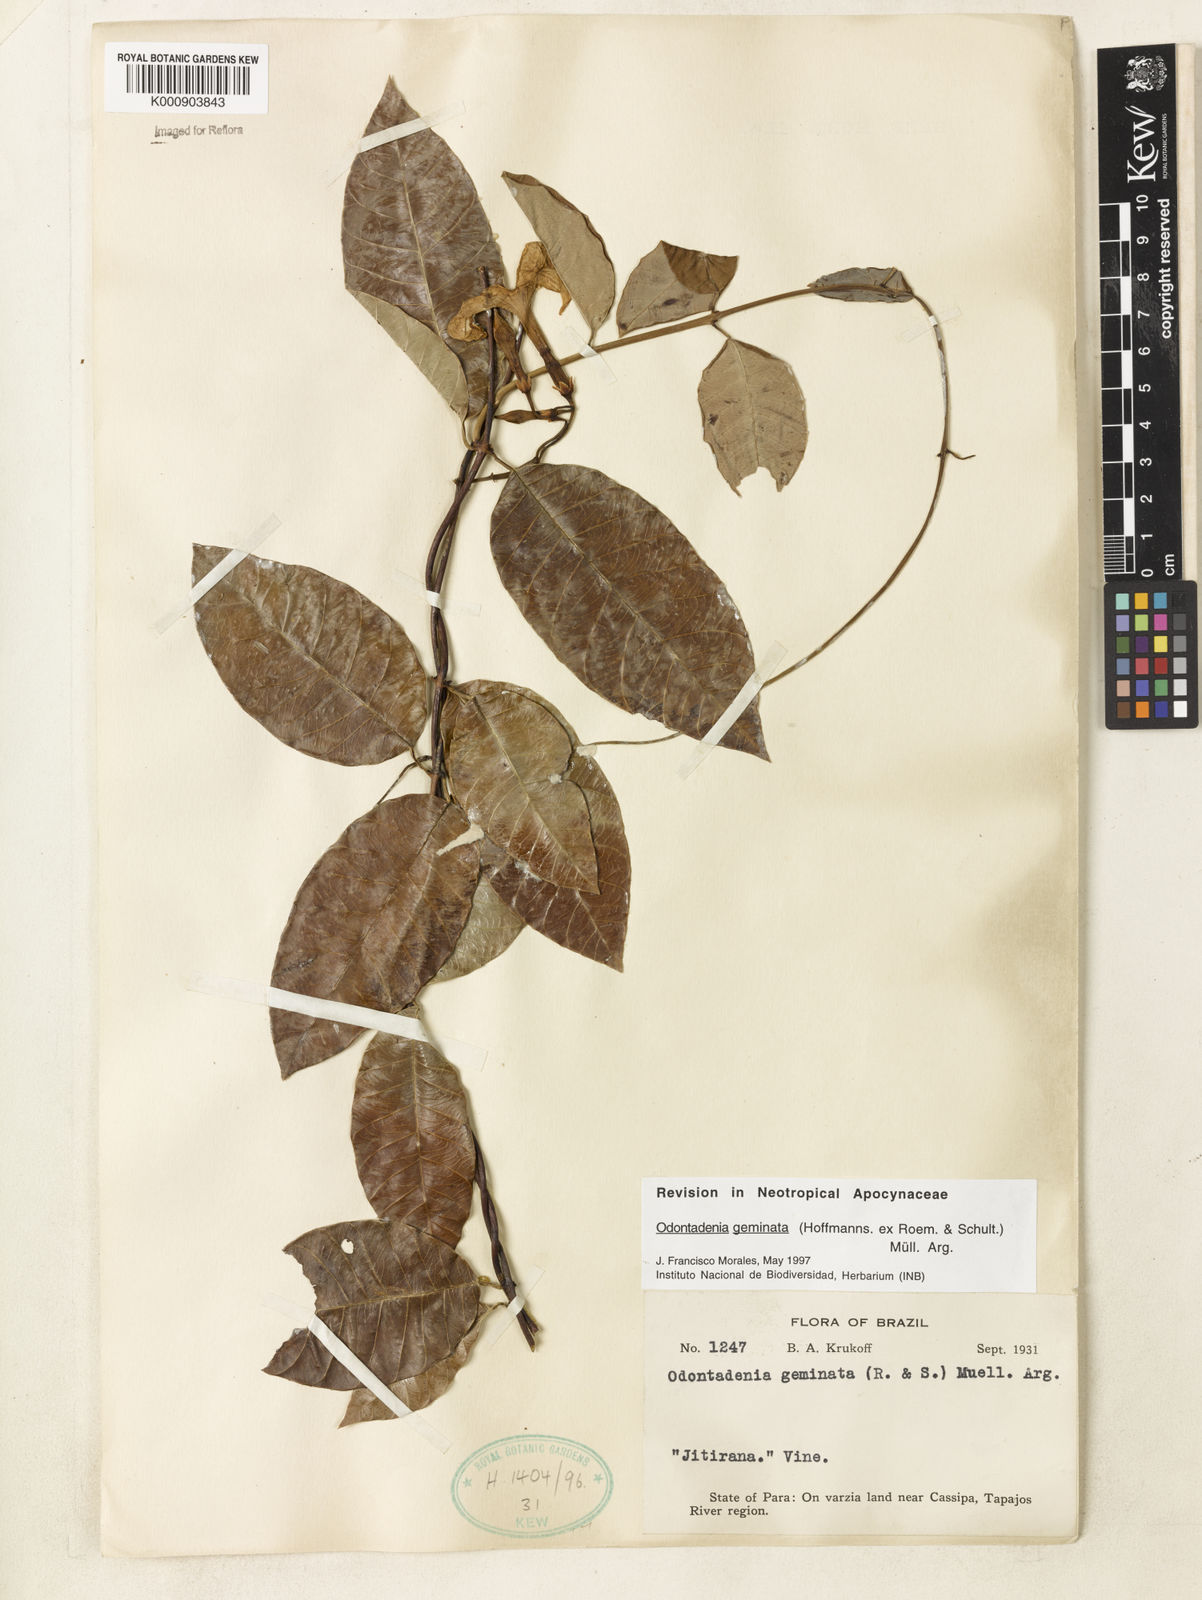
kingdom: Plantae
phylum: Tracheophyta
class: Magnoliopsida
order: Gentianales
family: Apocynaceae
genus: Odontadenia
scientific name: Odontadenia
